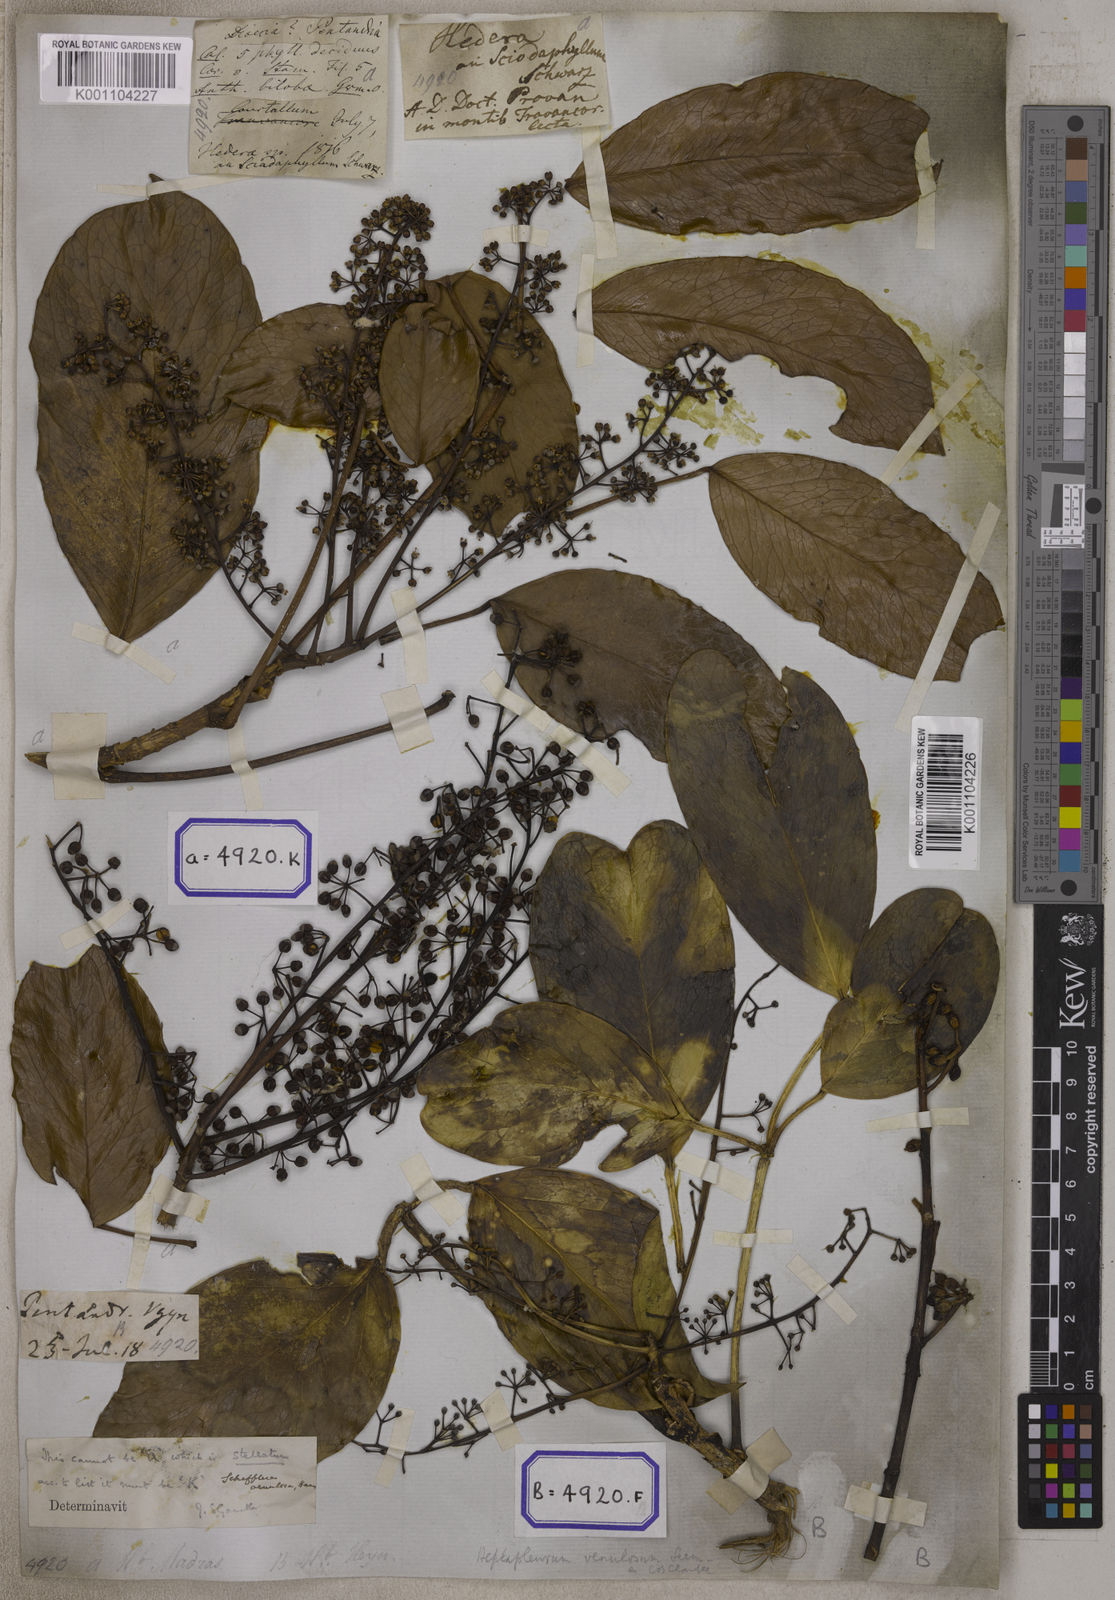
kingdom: Plantae
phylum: Tracheophyta
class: Magnoliopsida
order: Apiales
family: Araliaceae
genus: Hedera
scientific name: Hedera
